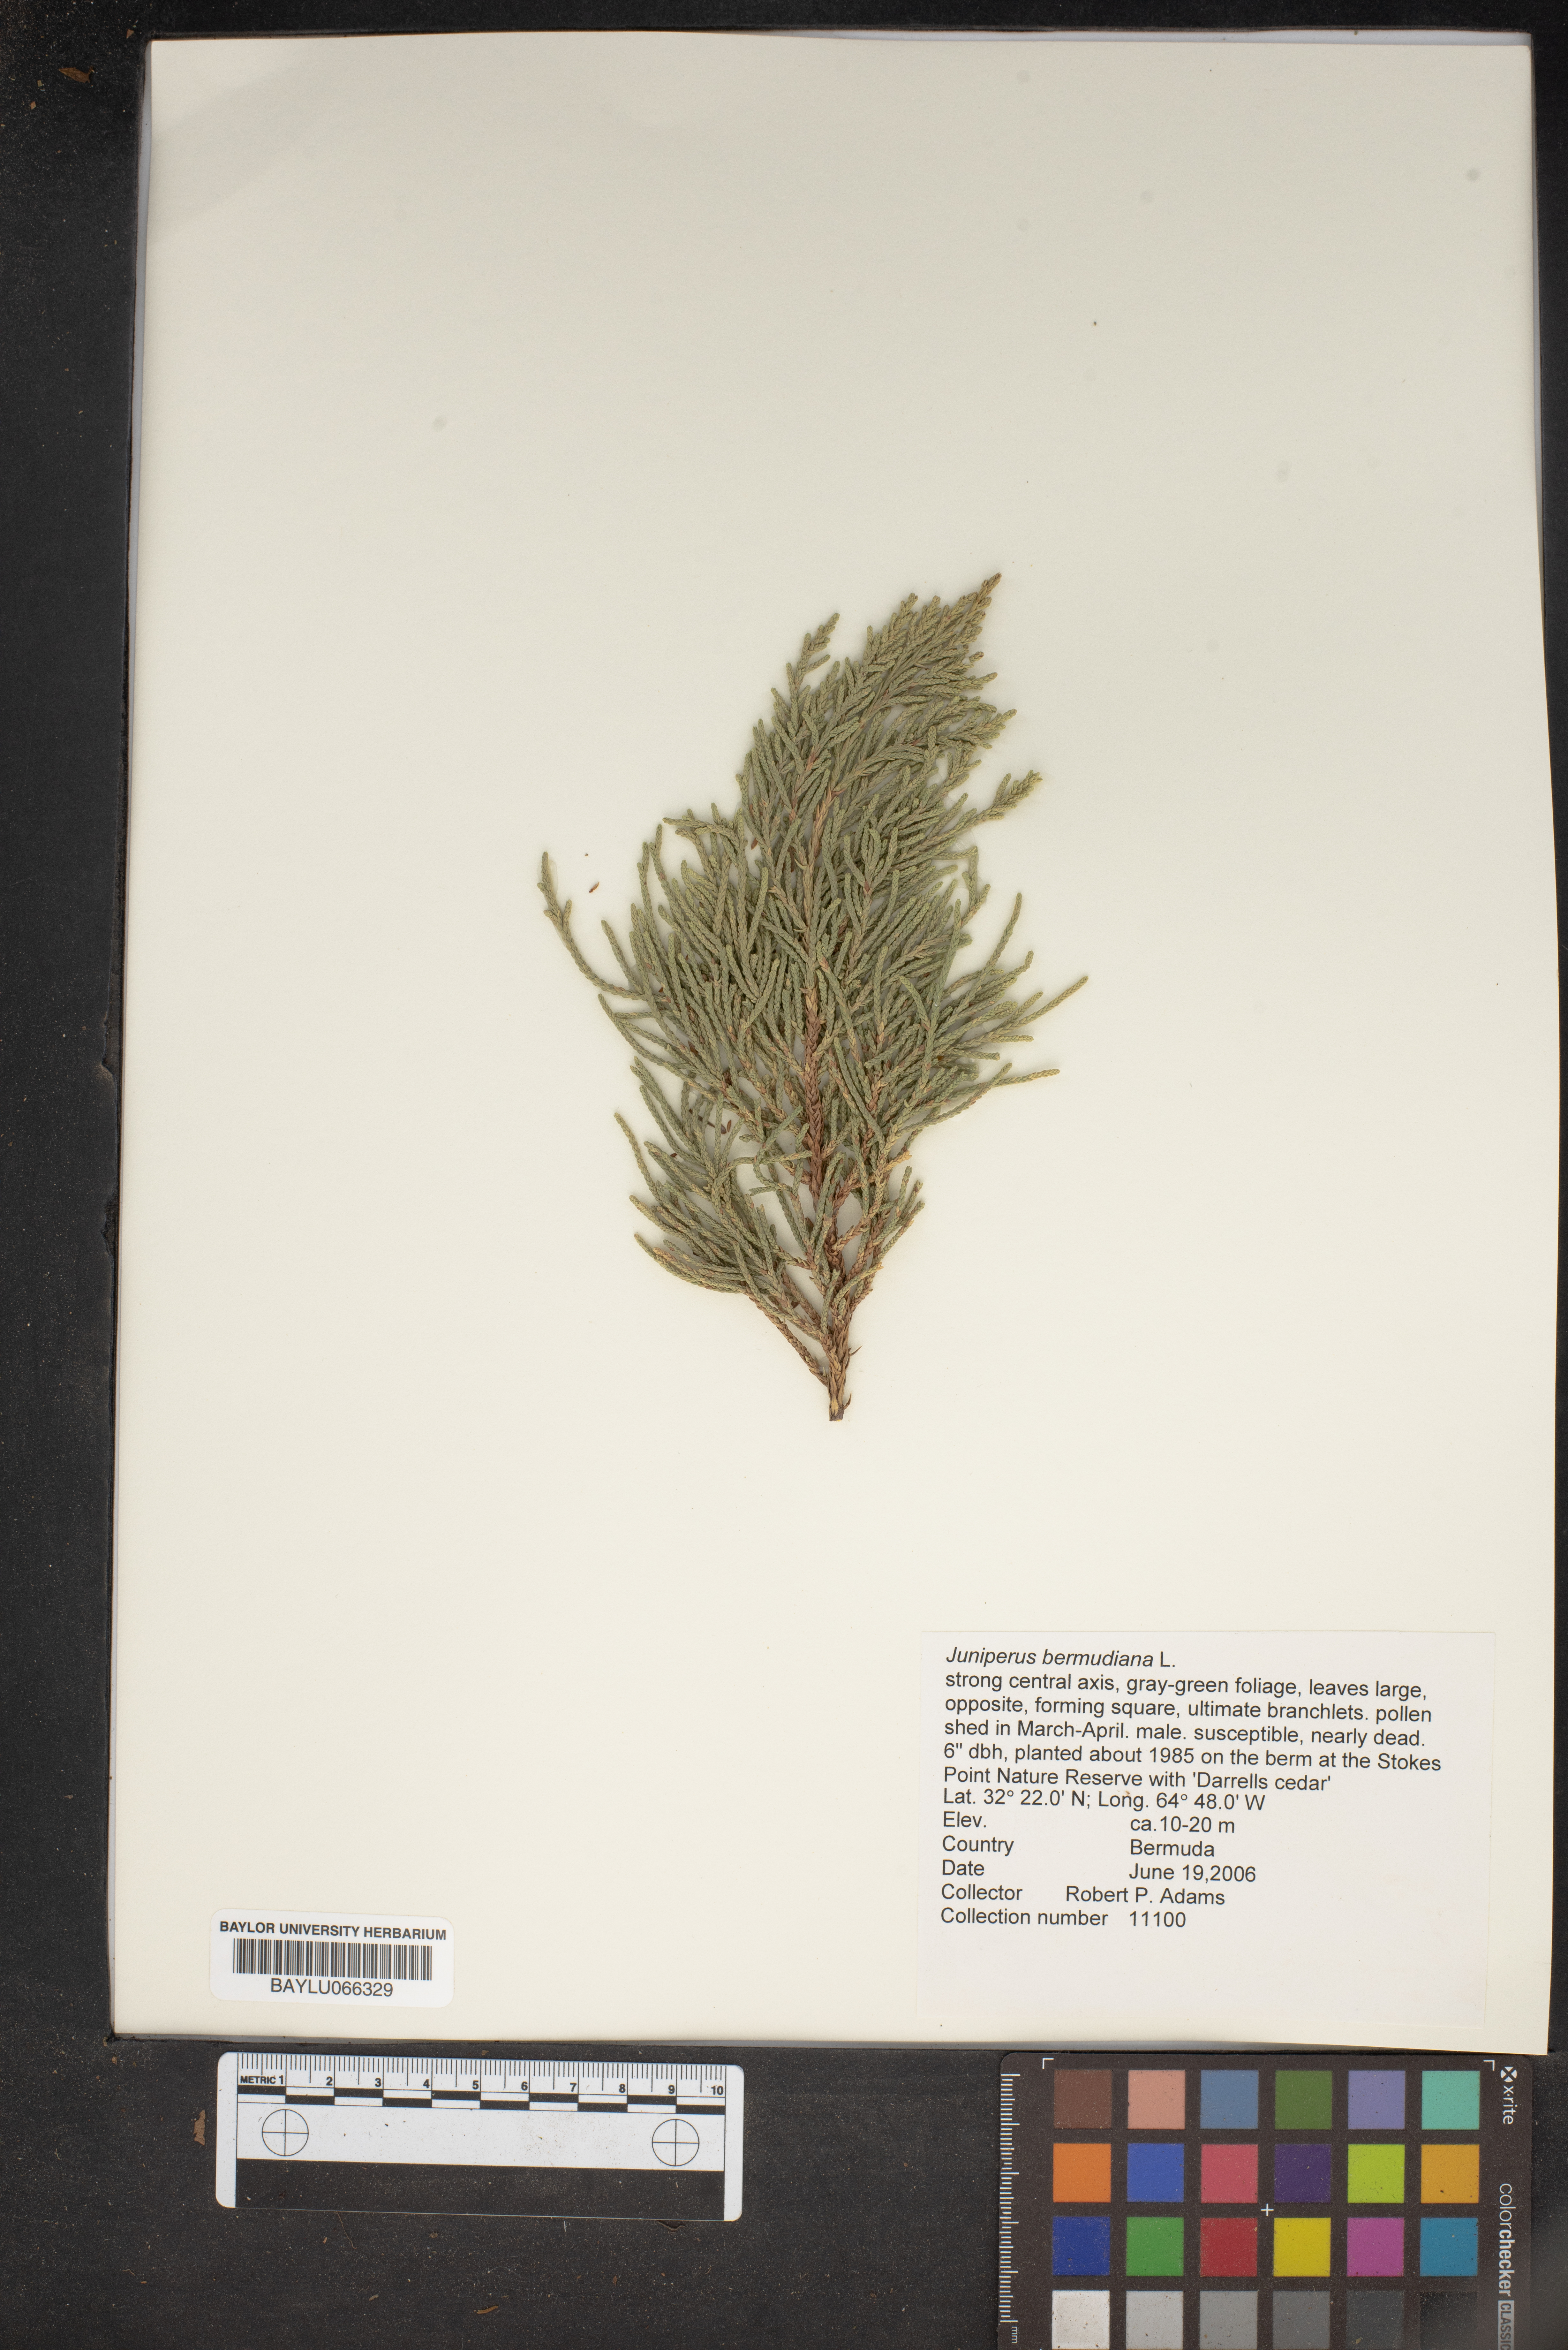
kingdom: Plantae
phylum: Tracheophyta
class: Pinopsida
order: Pinales
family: Cupressaceae
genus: Juniperus
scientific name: Juniperus bermudiana
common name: Bermuda juniper
